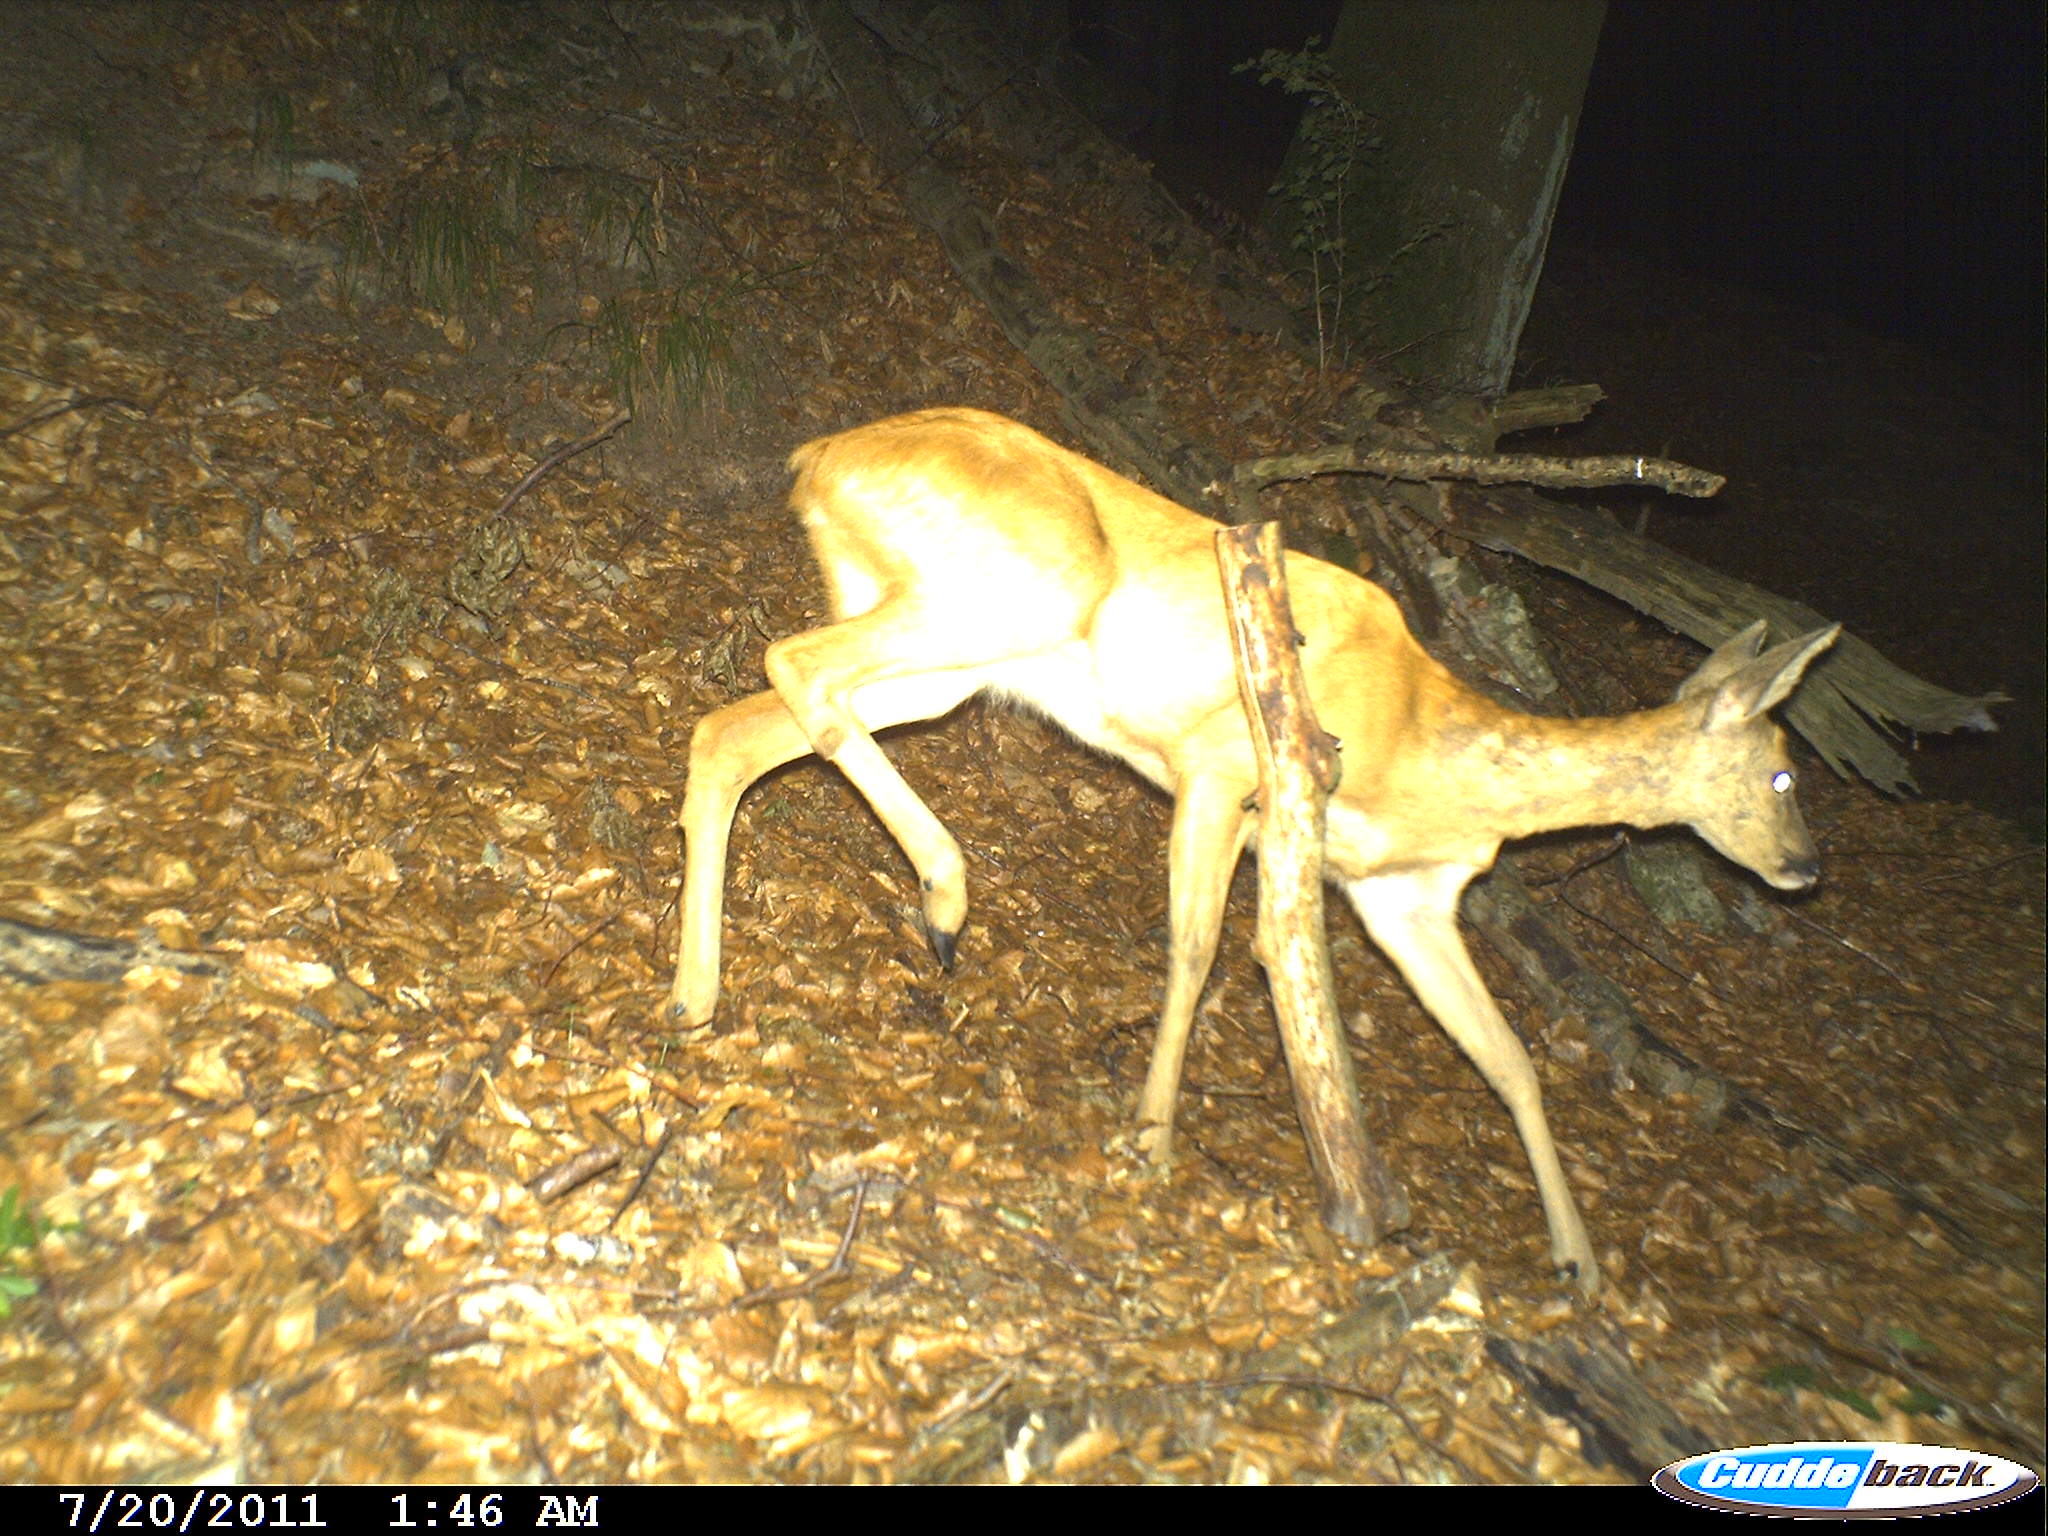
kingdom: Animalia
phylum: Chordata
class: Mammalia
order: Artiodactyla
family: Cervidae
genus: Capreolus
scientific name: Capreolus capreolus
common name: Western roe deer
